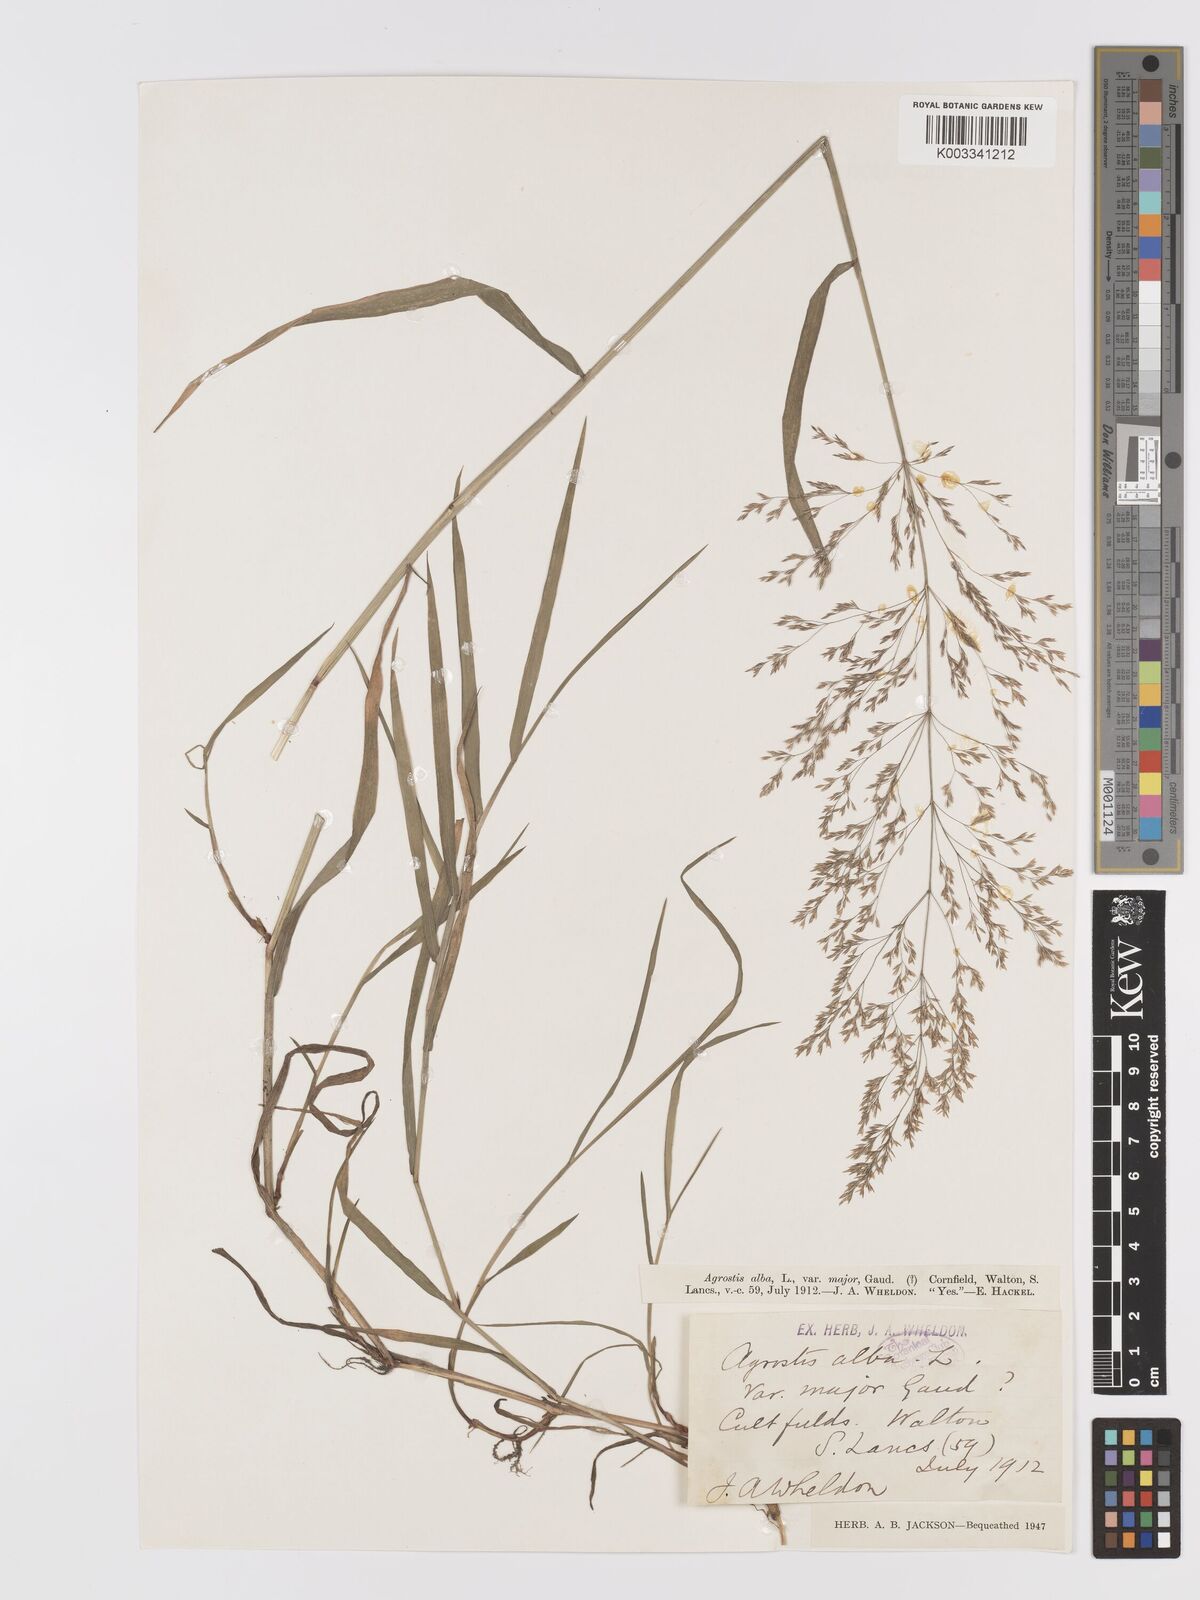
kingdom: Plantae
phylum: Tracheophyta
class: Liliopsida
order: Poales
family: Poaceae
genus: Agrostis
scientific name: Agrostis gigantea
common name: Black bent
